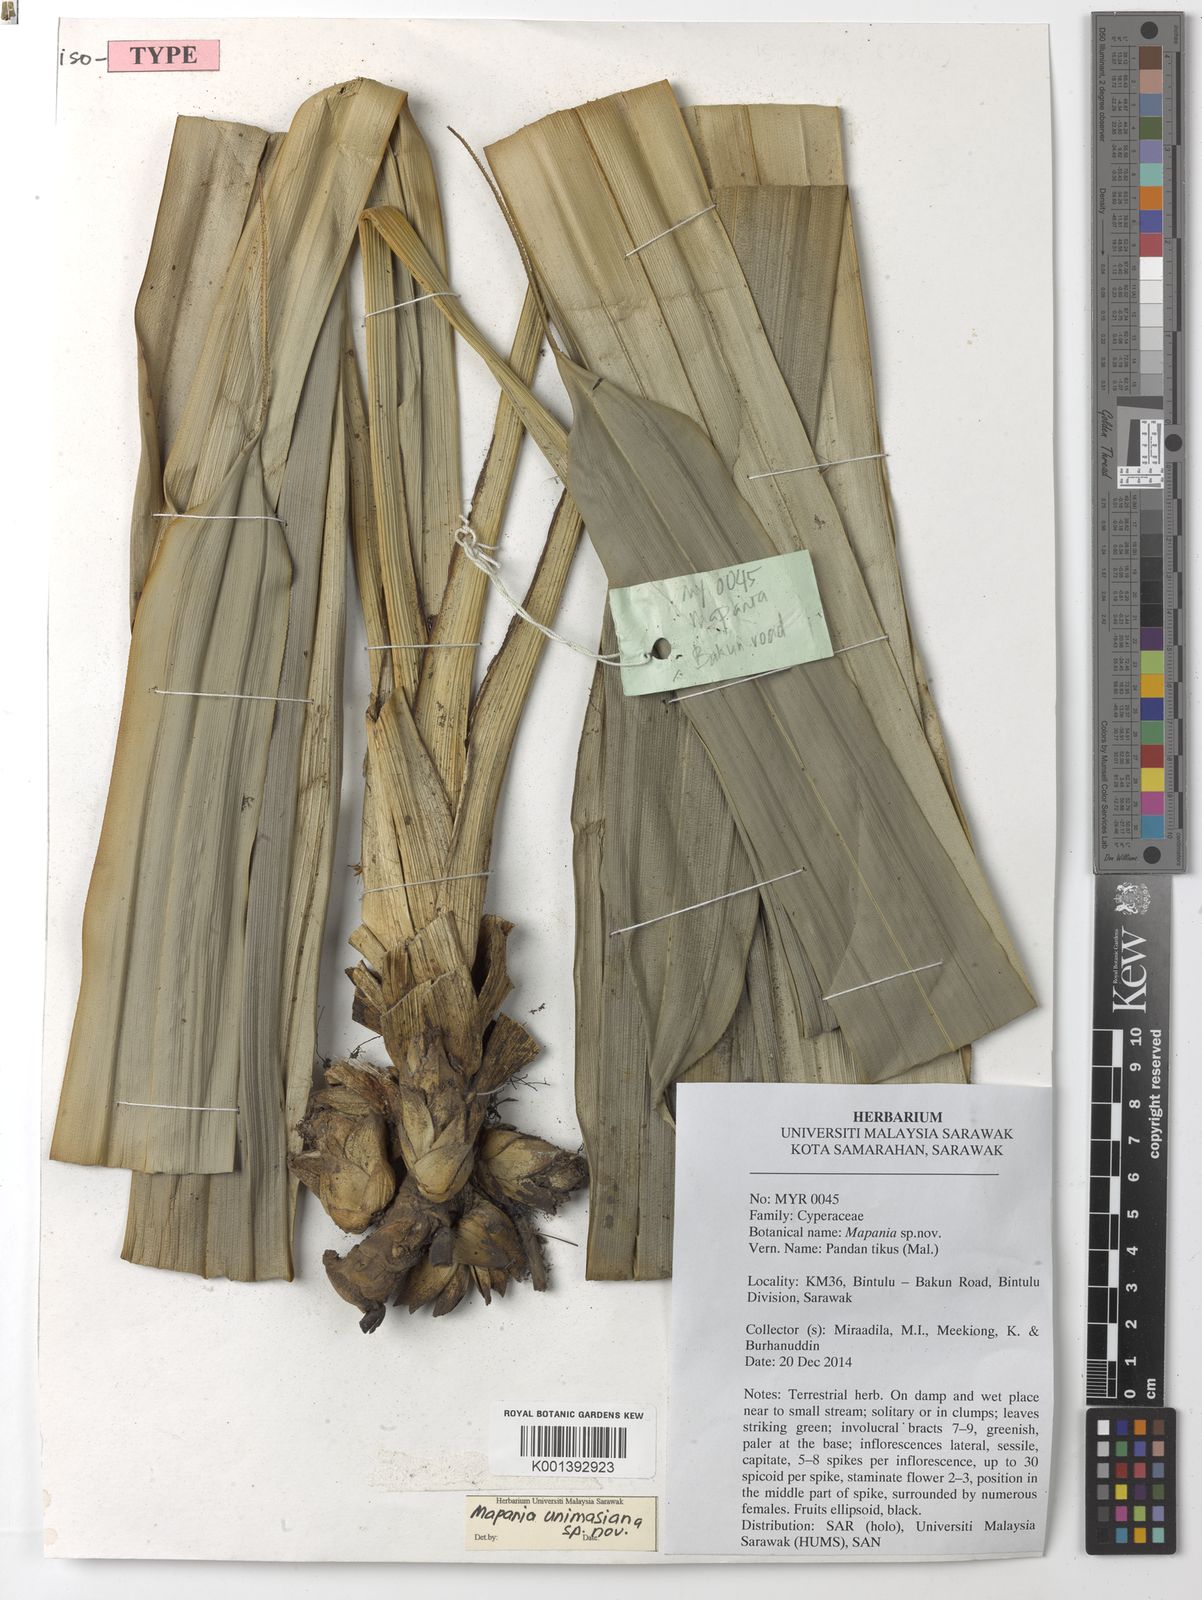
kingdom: Plantae
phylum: Tracheophyta
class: Liliopsida
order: Poales
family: Cyperaceae
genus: Mapania
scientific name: Mapania unimasiana
